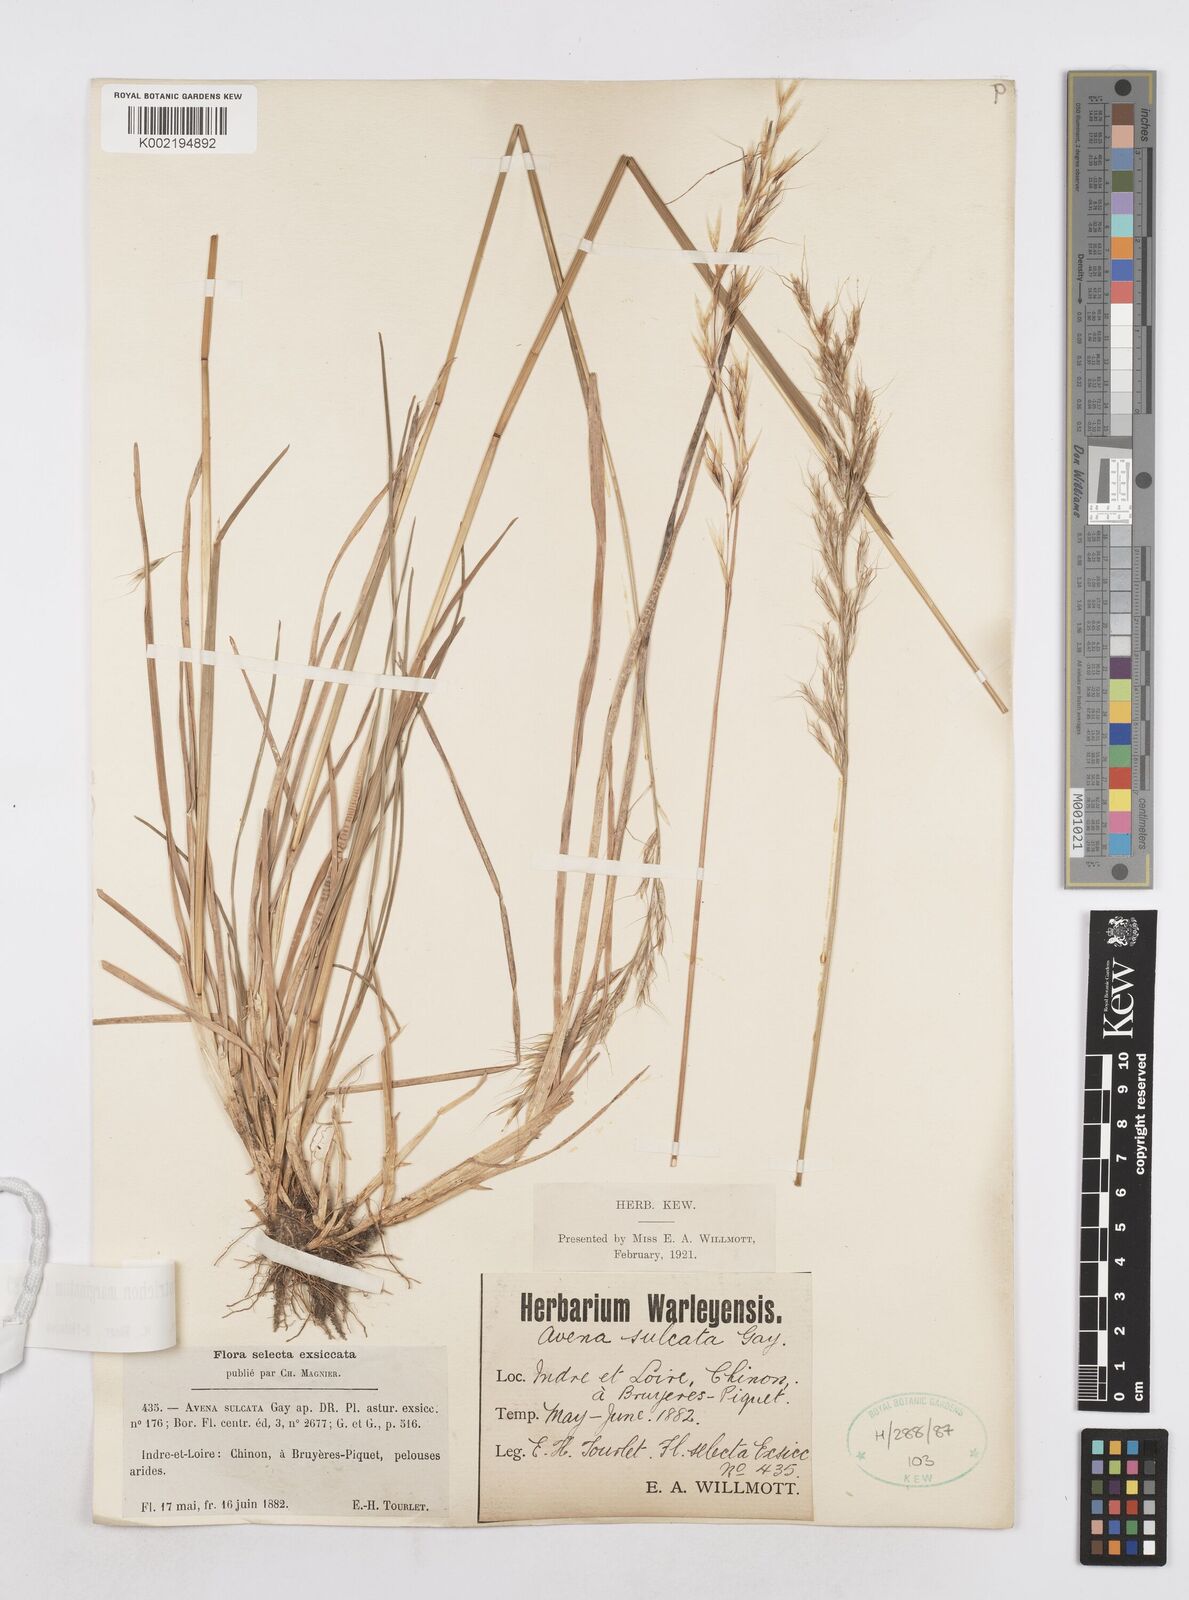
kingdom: Plantae
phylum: Tracheophyta
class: Liliopsida
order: Poales
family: Poaceae
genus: Helictotrichon
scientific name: Helictotrichon
